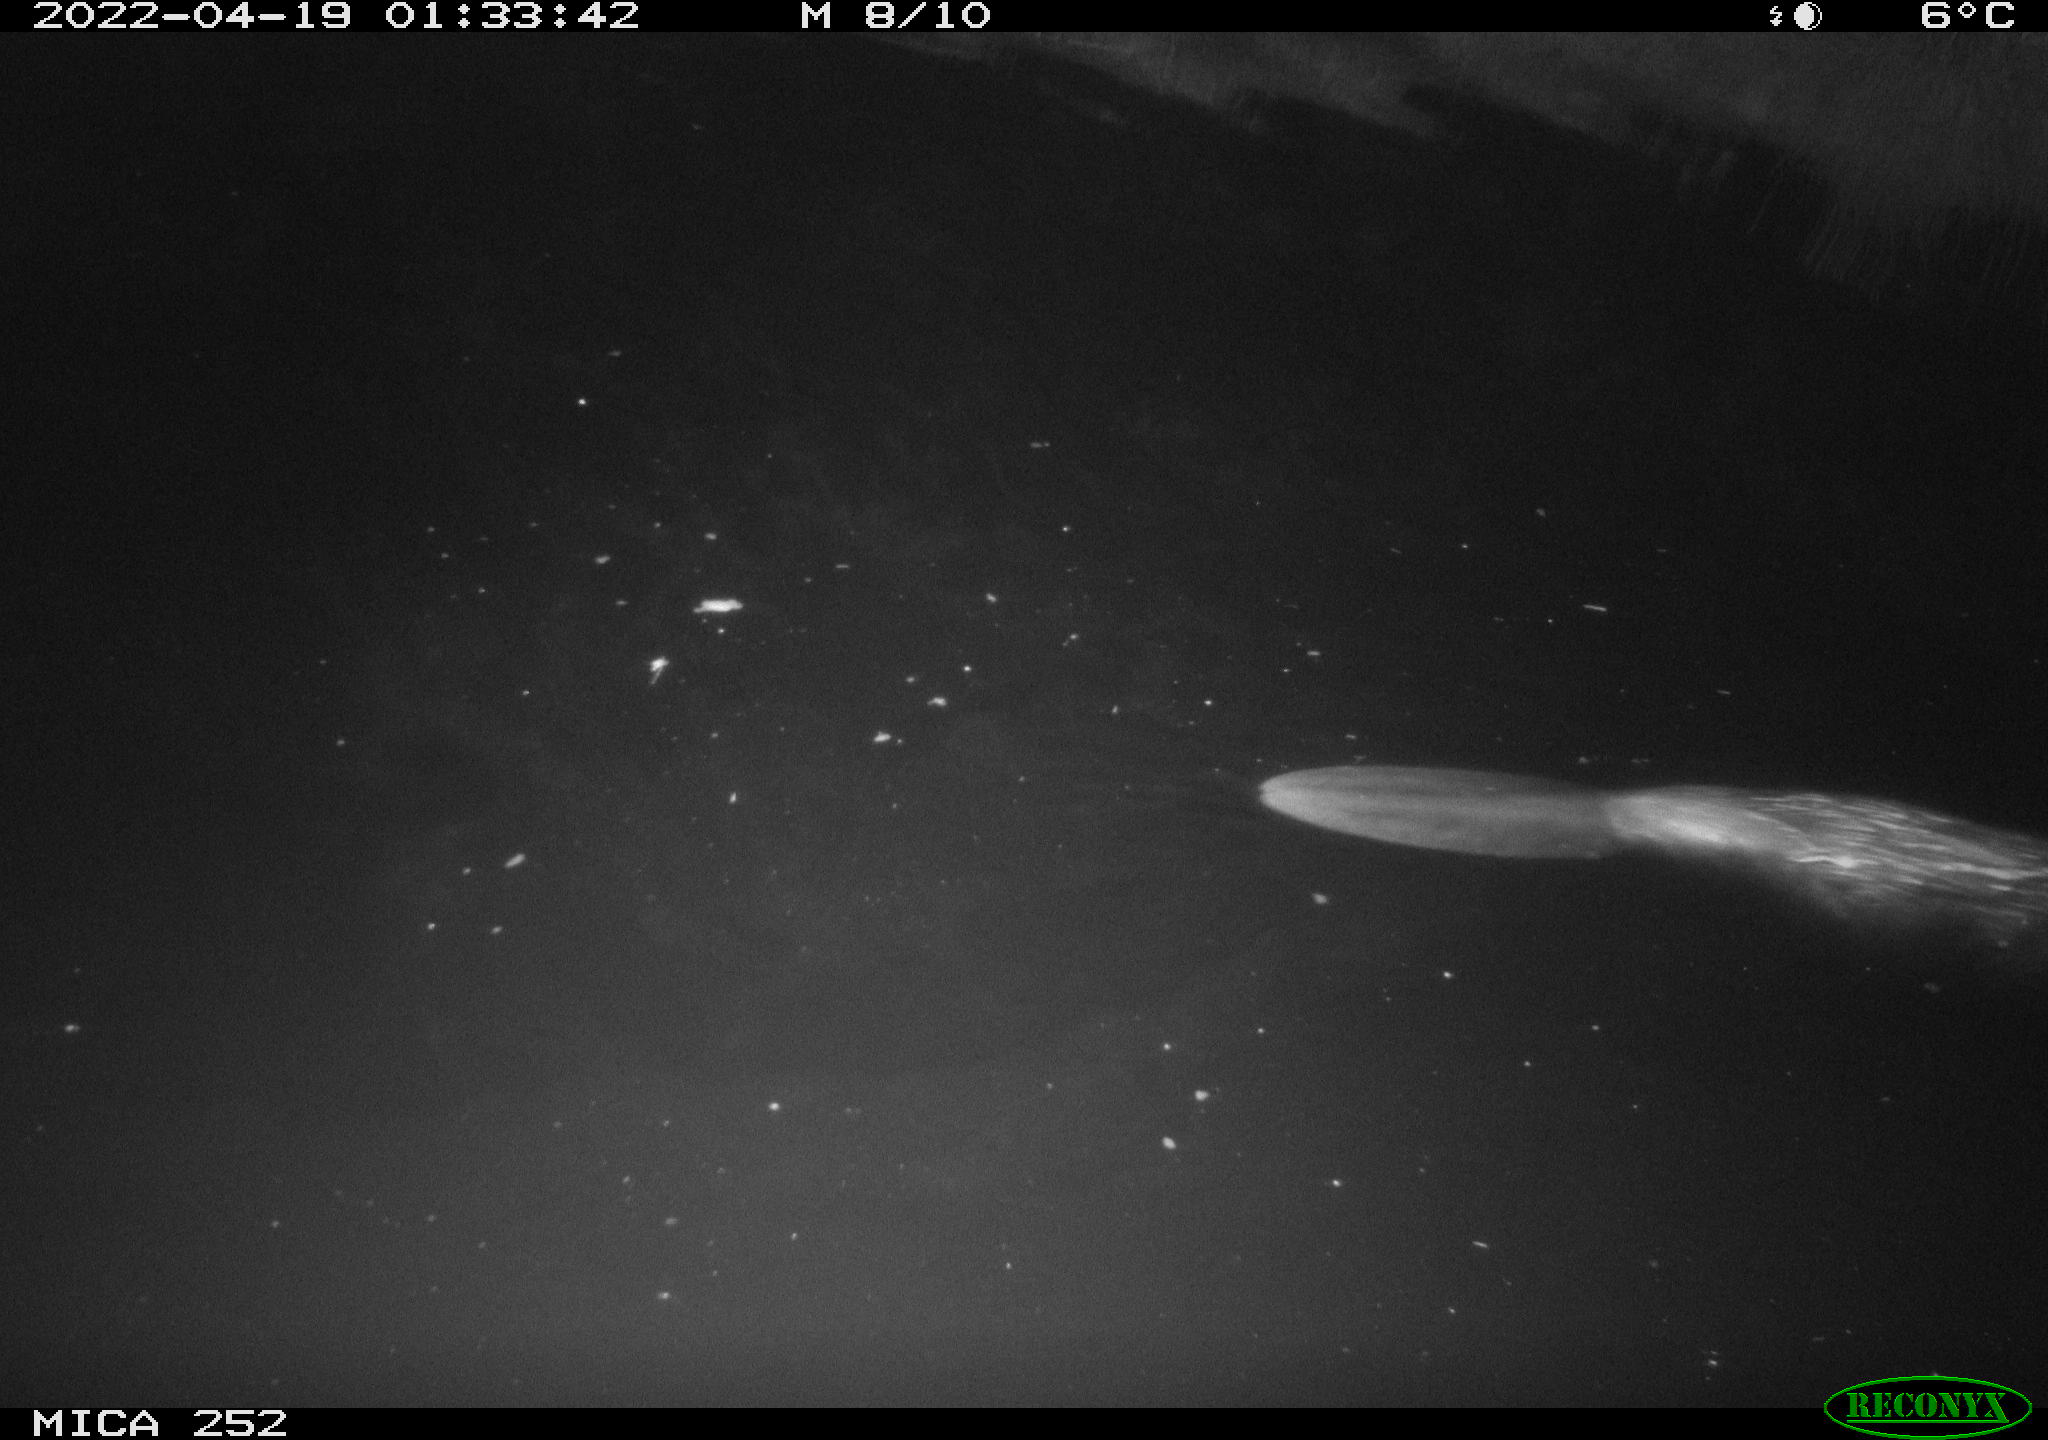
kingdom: Animalia
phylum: Chordata
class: Mammalia
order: Rodentia
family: Castoridae
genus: Castor
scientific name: Castor fiber
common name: Eurasian beaver
